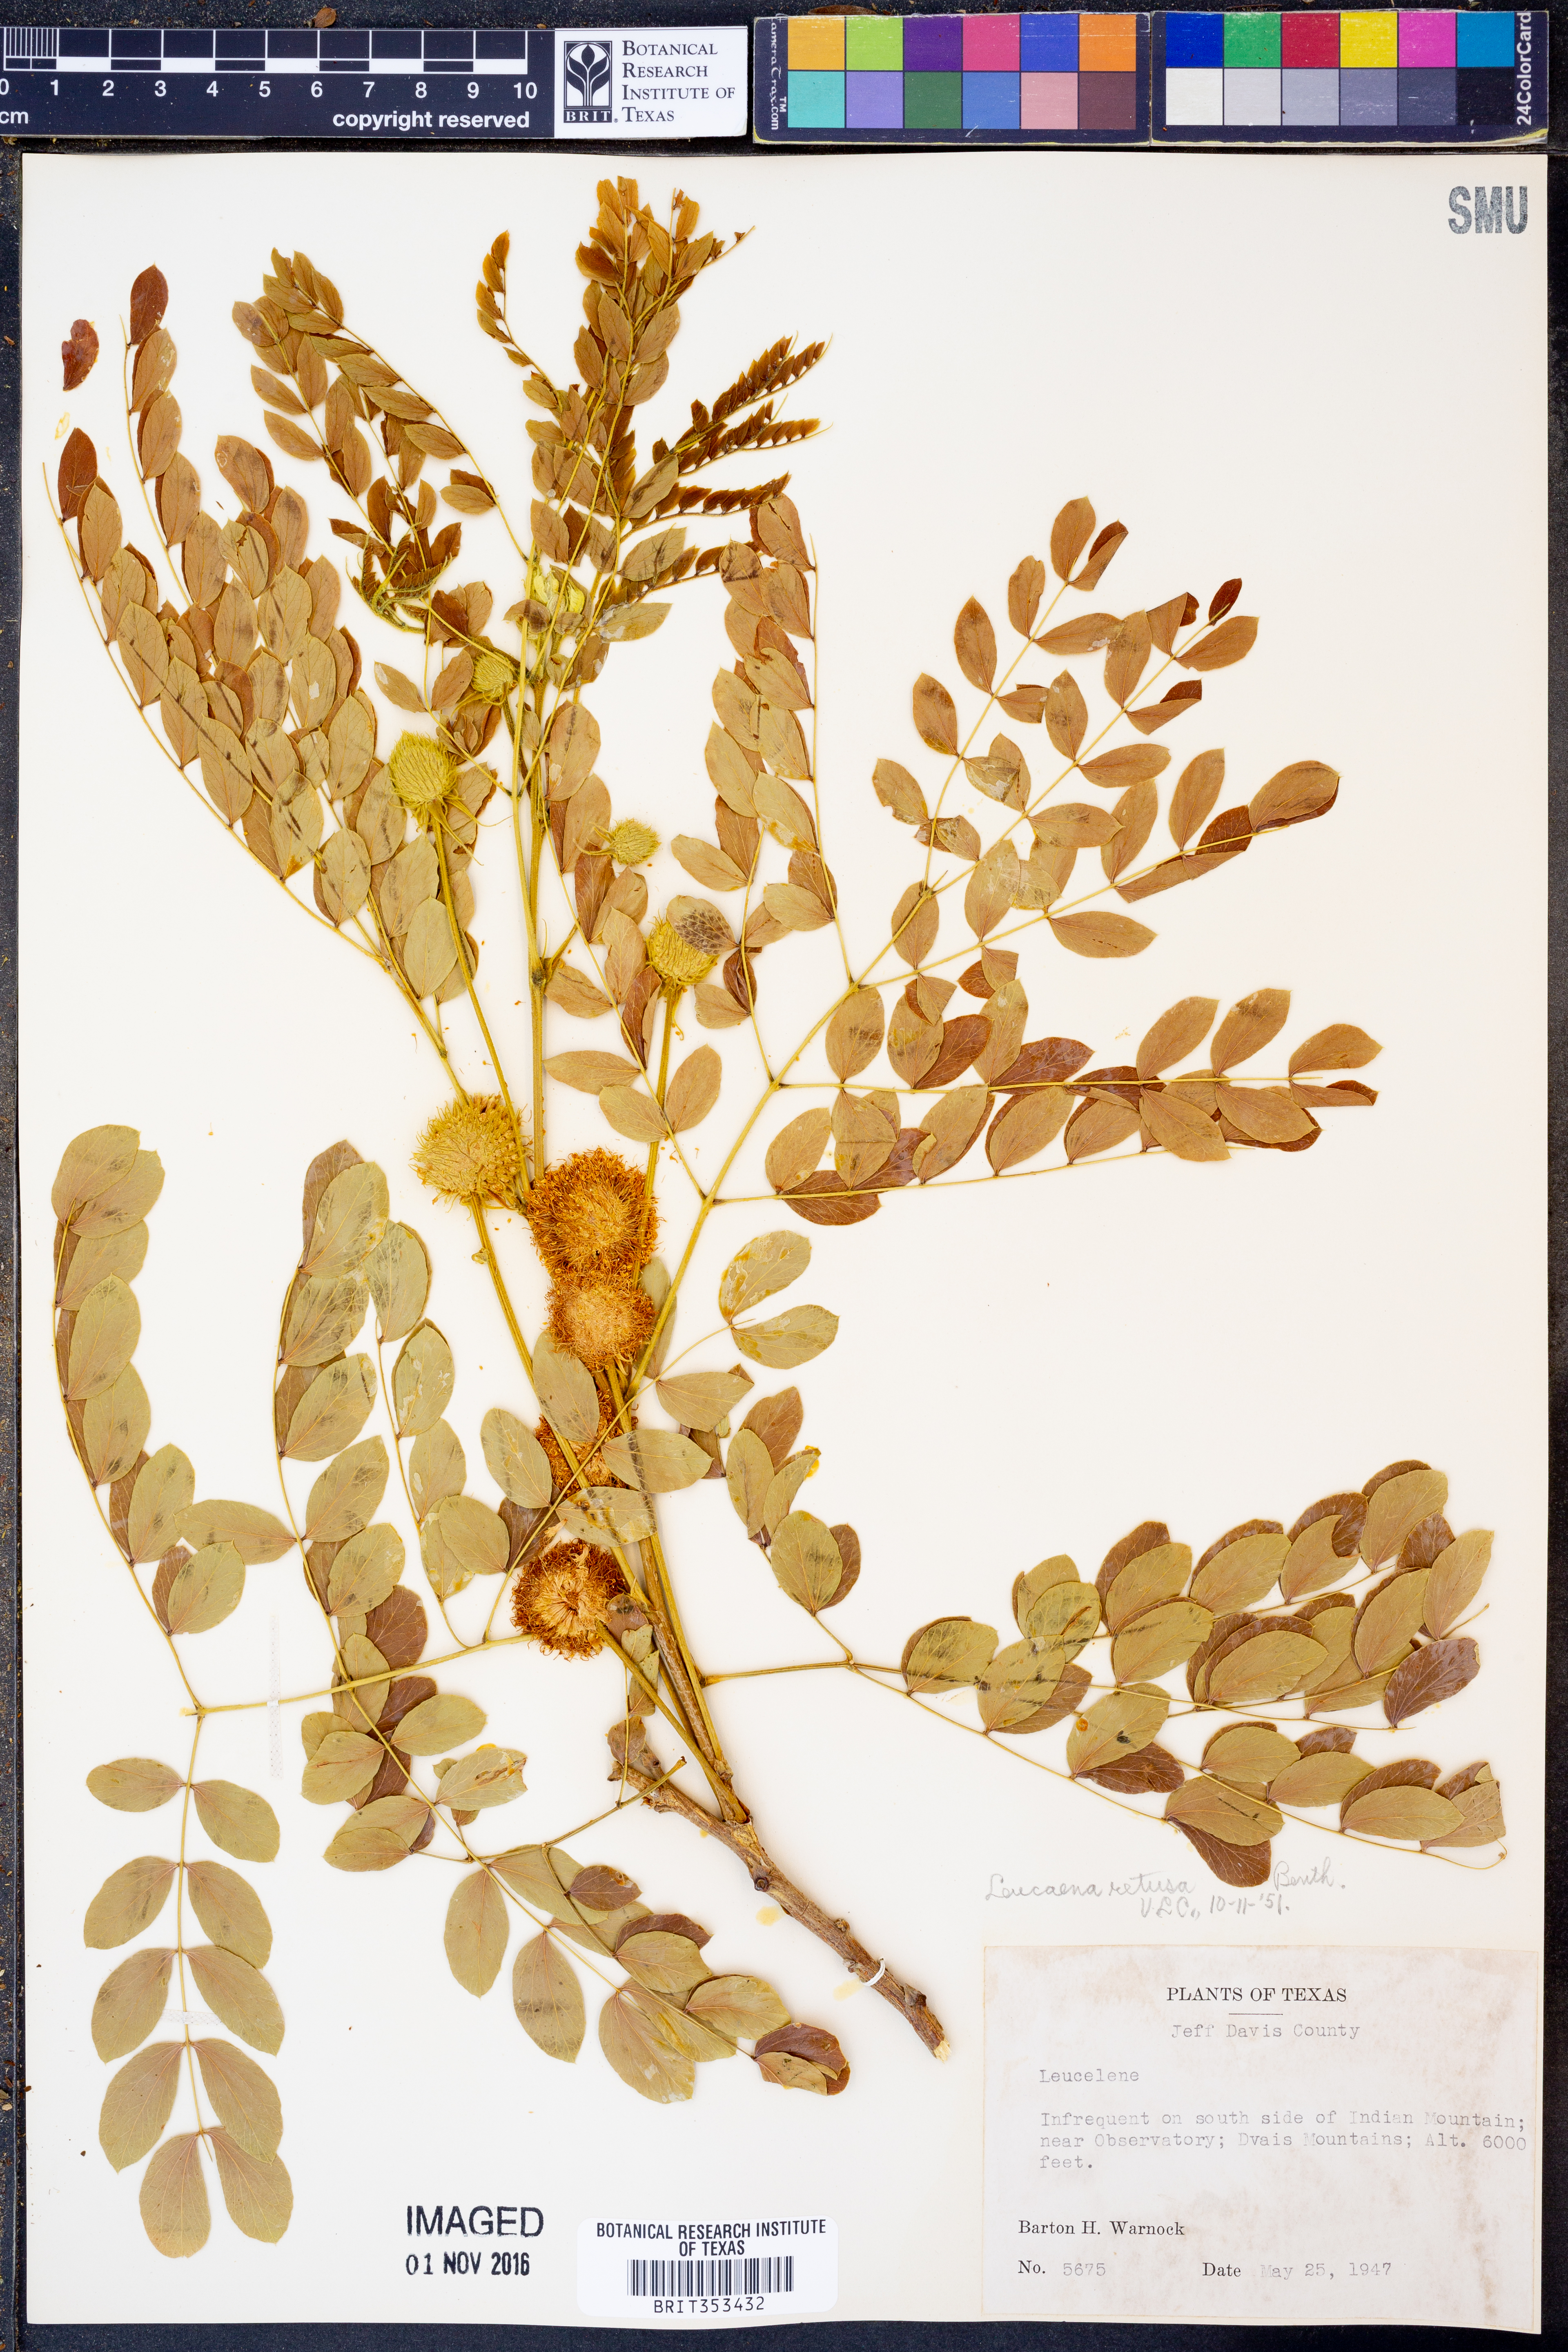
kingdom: Plantae
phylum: Tracheophyta
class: Magnoliopsida
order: Fabales
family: Fabaceae
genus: Leucaena
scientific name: Leucaena retusa
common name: Littleleaf leadtree
